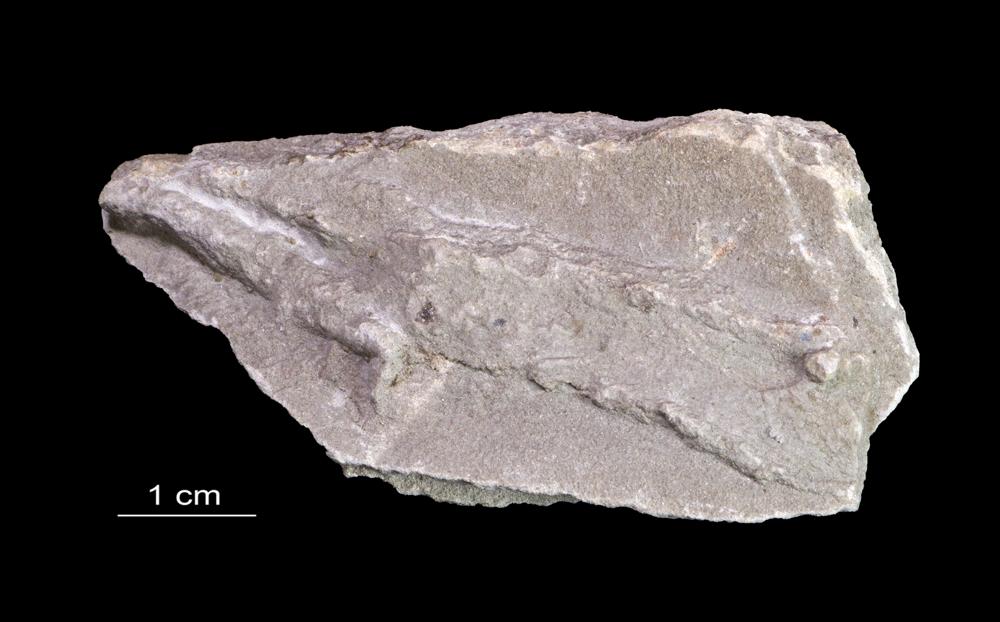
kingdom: Animalia
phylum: Arthropoda
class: Trilobita
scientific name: Trilobita
